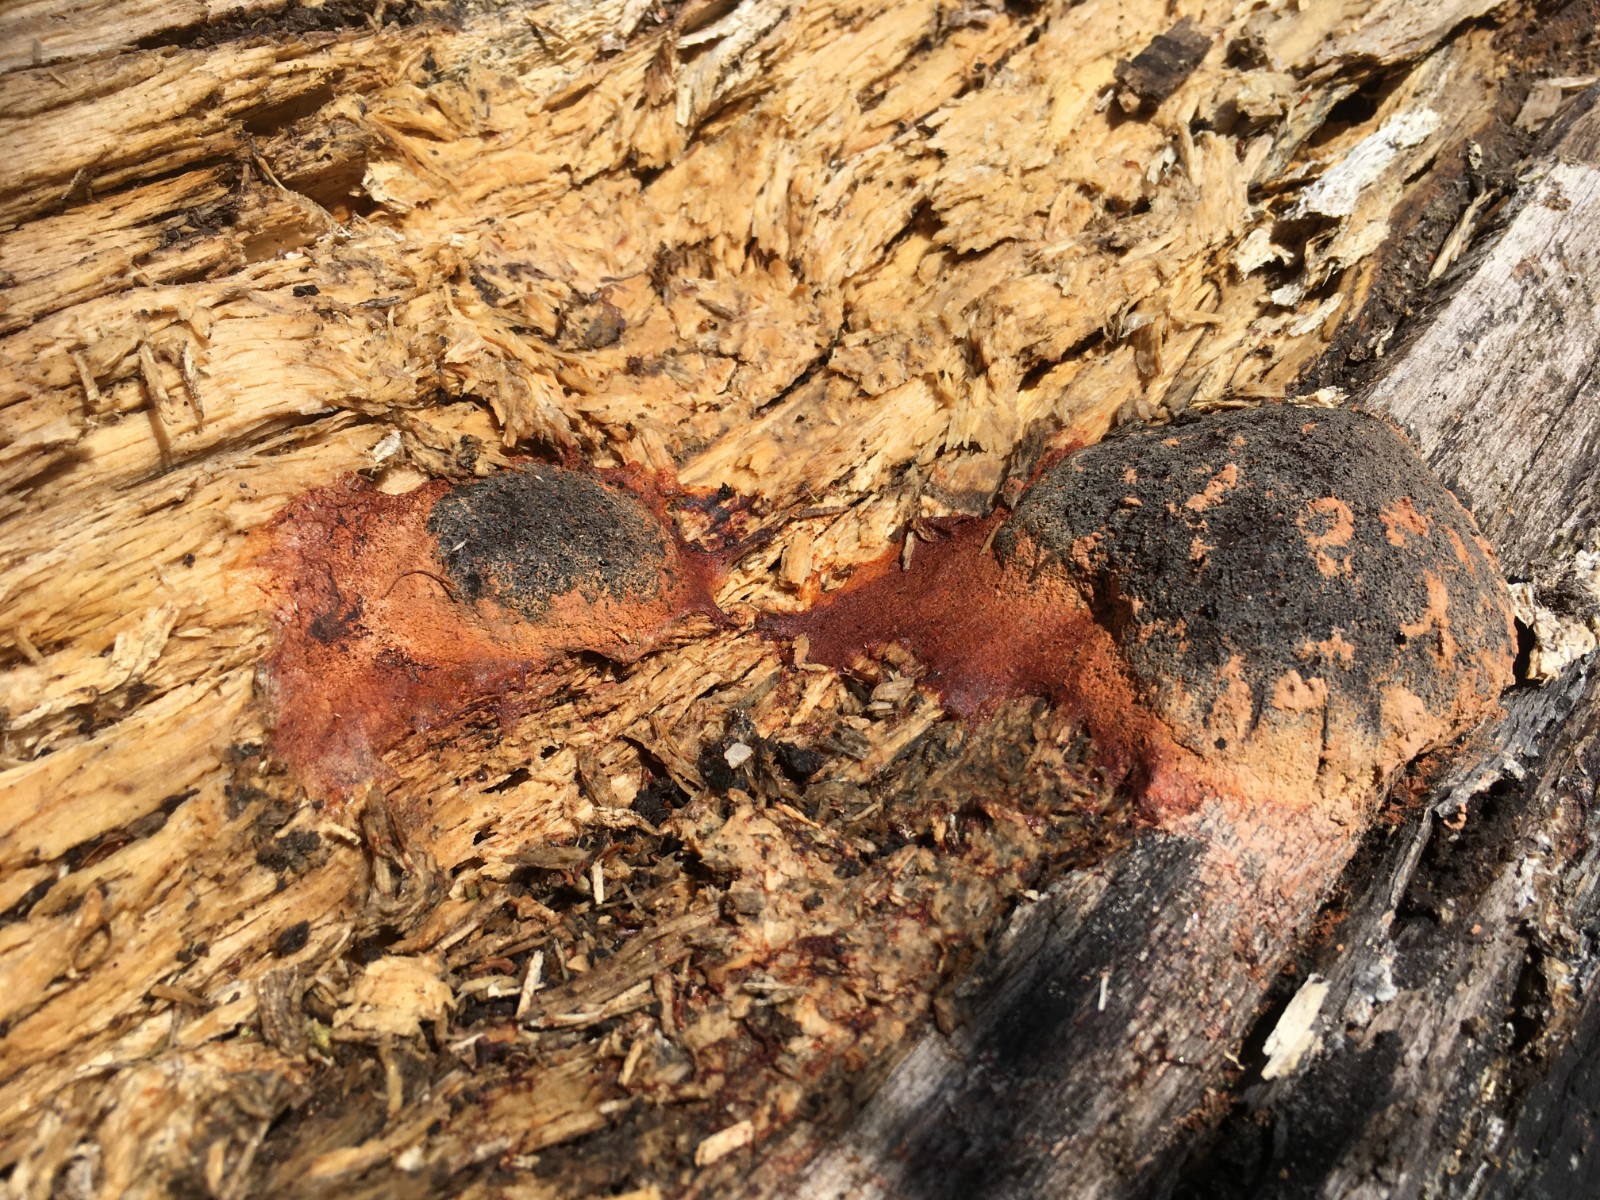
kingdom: Protozoa
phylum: Mycetozoa
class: Myxomycetes
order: Physarales
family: Physaraceae
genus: Fuligo
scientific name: Fuligo leviderma
